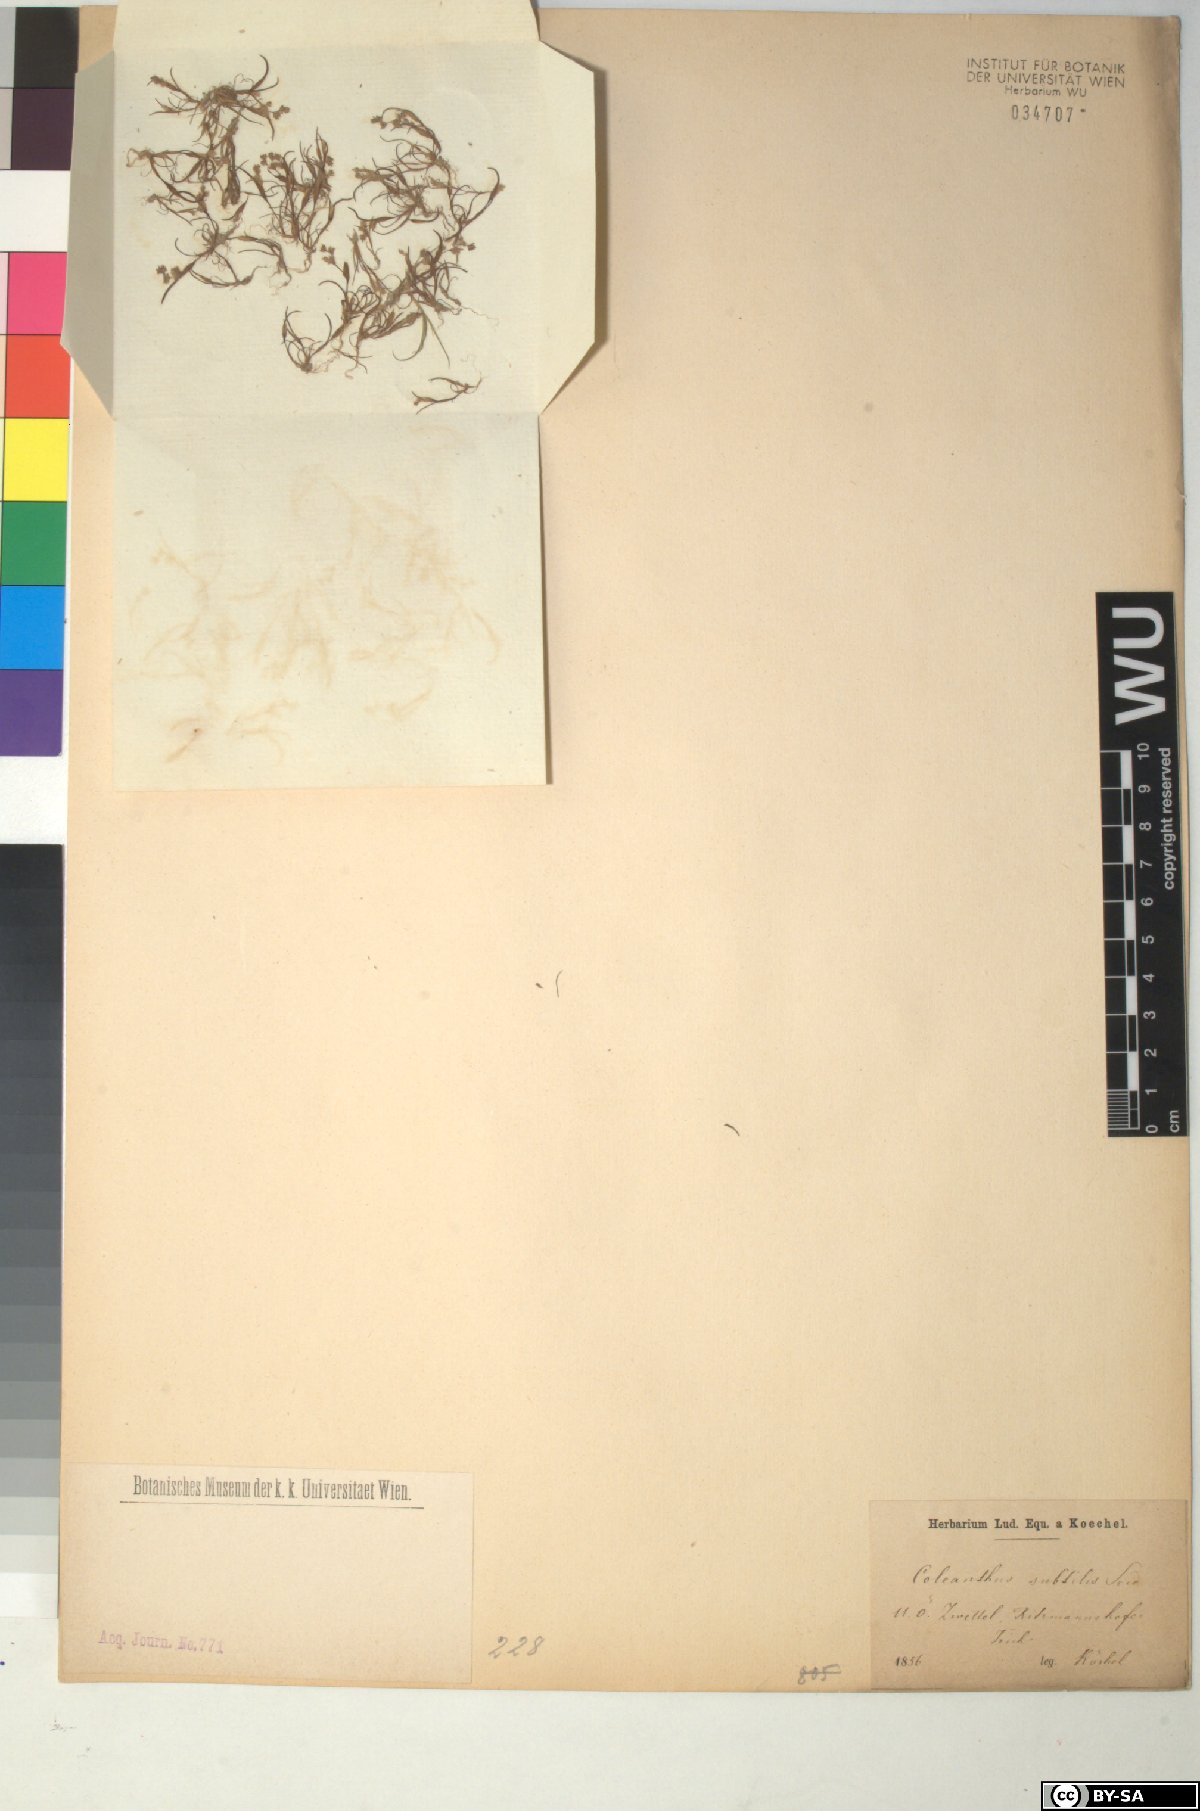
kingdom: Plantae
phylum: Tracheophyta
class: Liliopsida
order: Poales
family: Poaceae
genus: Coleanthus
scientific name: Coleanthus subtilis
